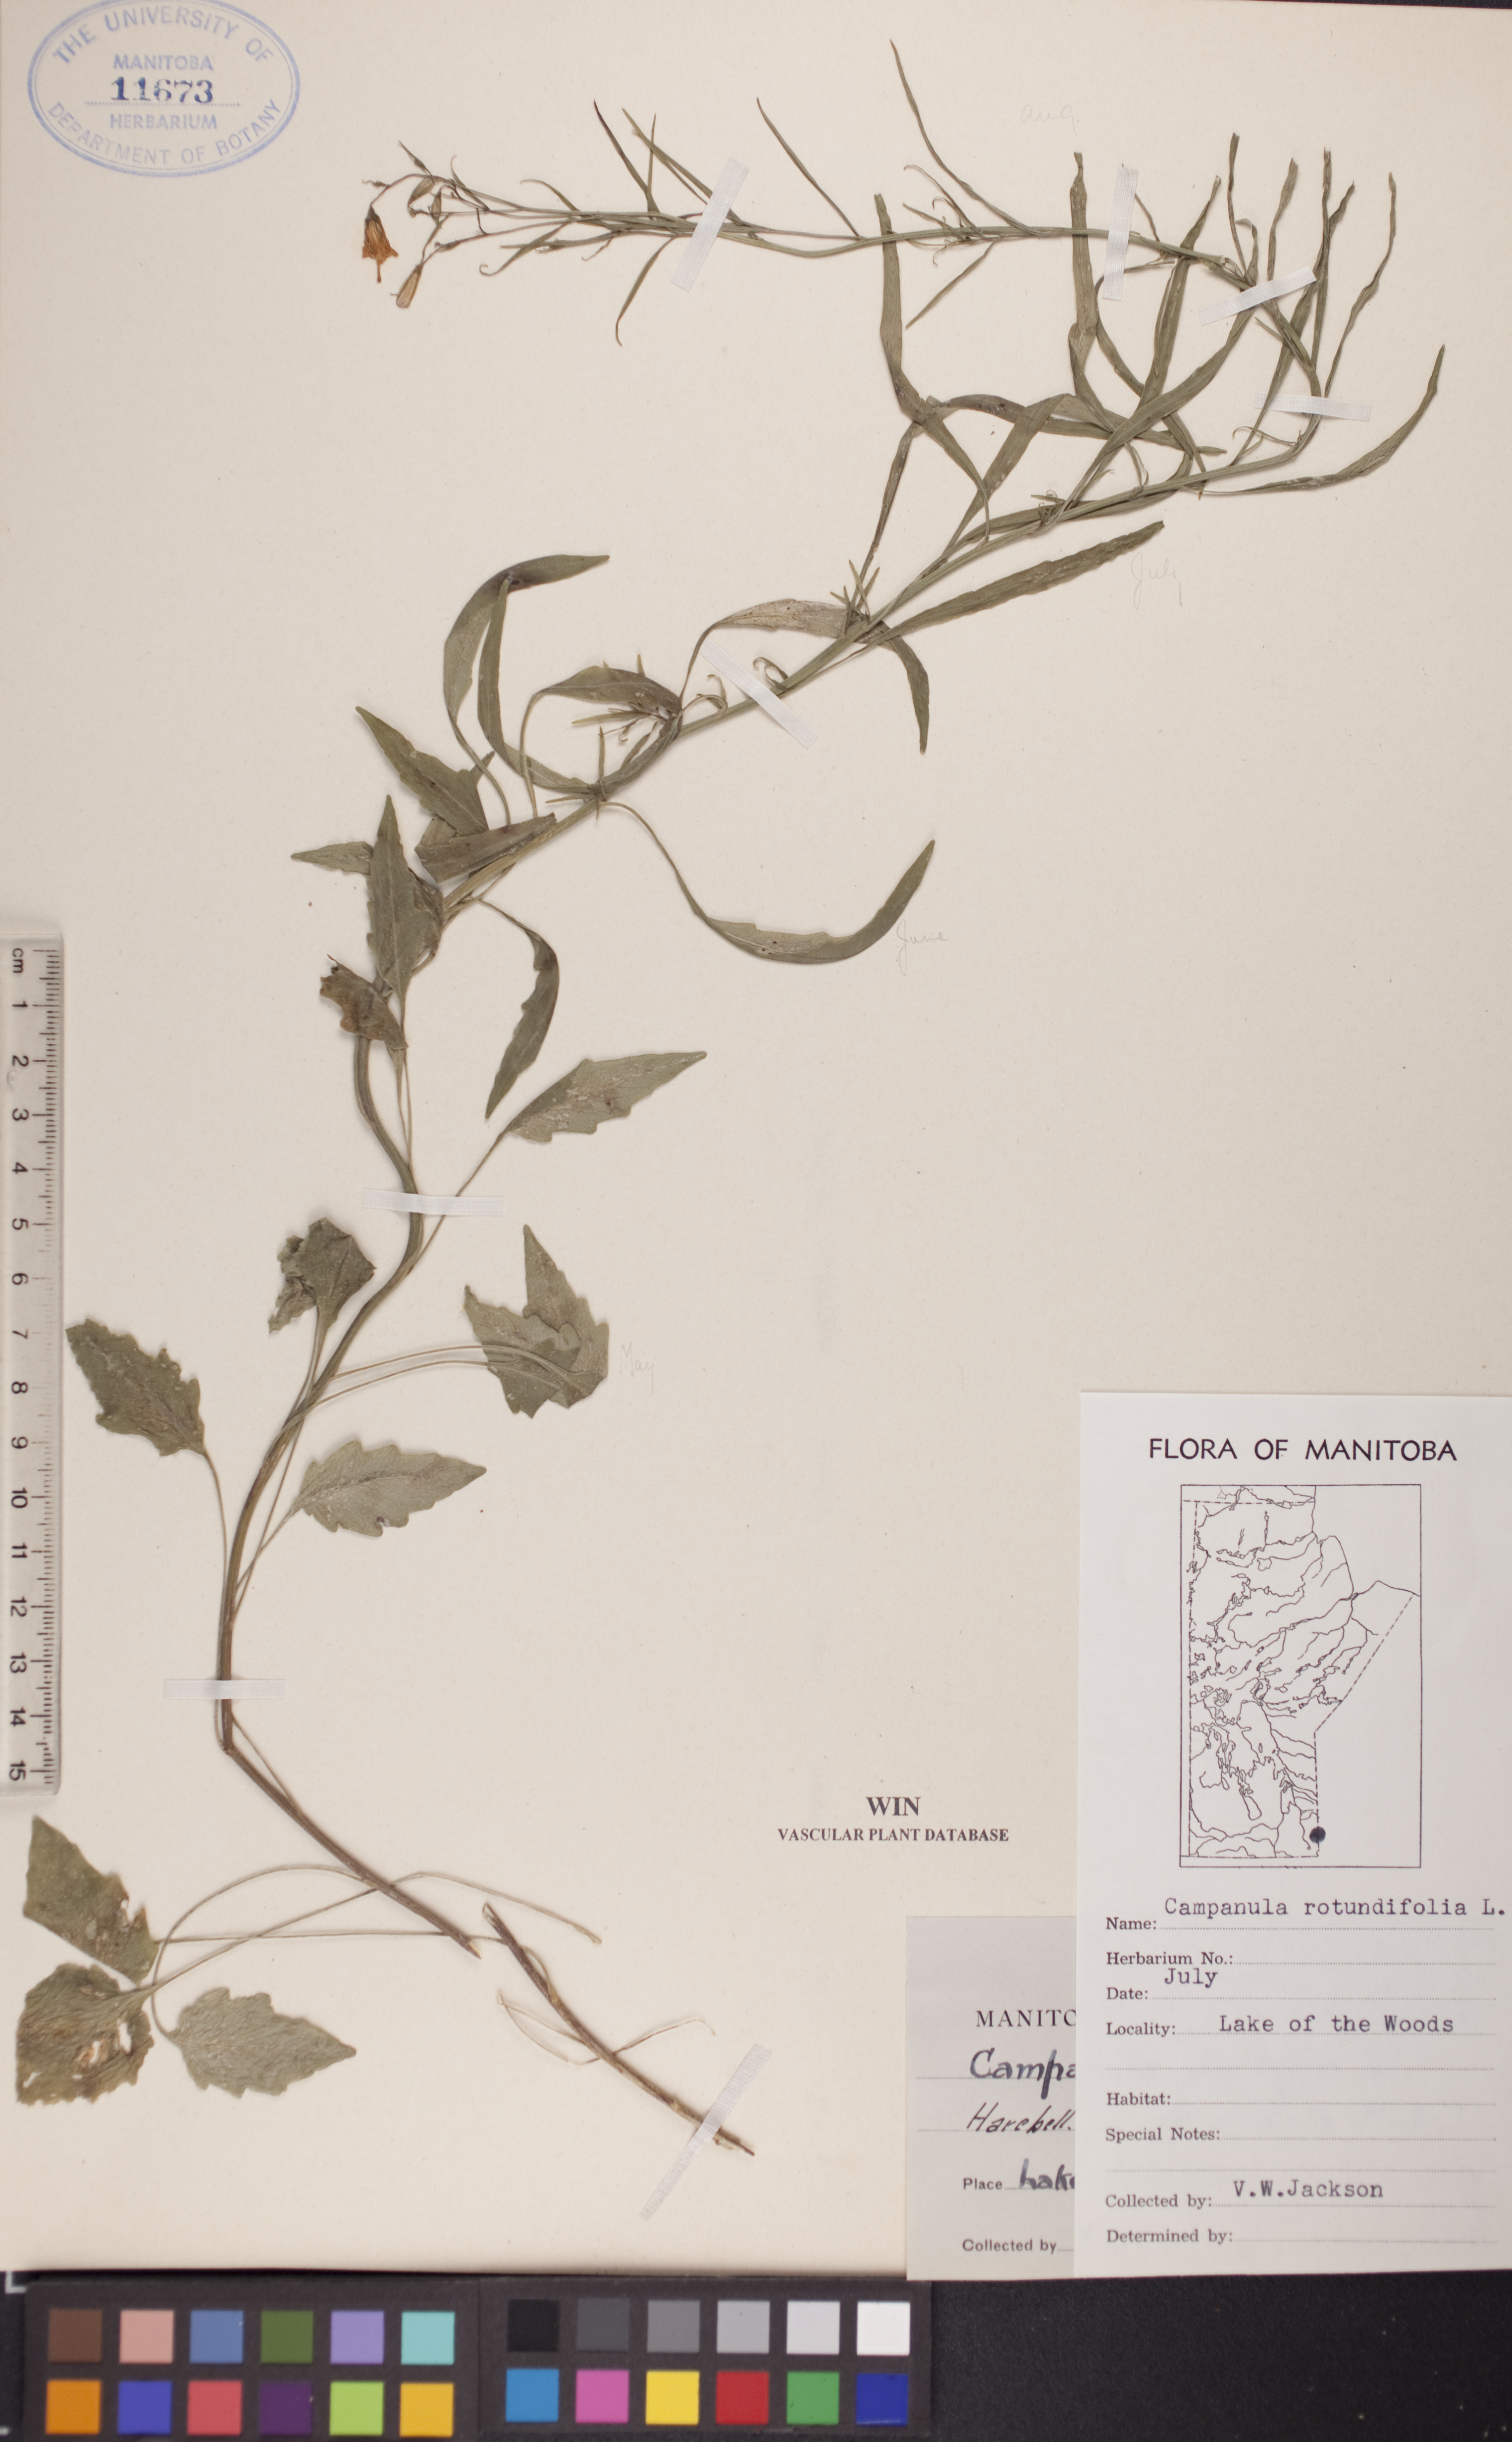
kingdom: Plantae
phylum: Tracheophyta
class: Magnoliopsida
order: Asterales
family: Campanulaceae
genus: Campanula
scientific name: Campanula rotundifolia
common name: Harebell
